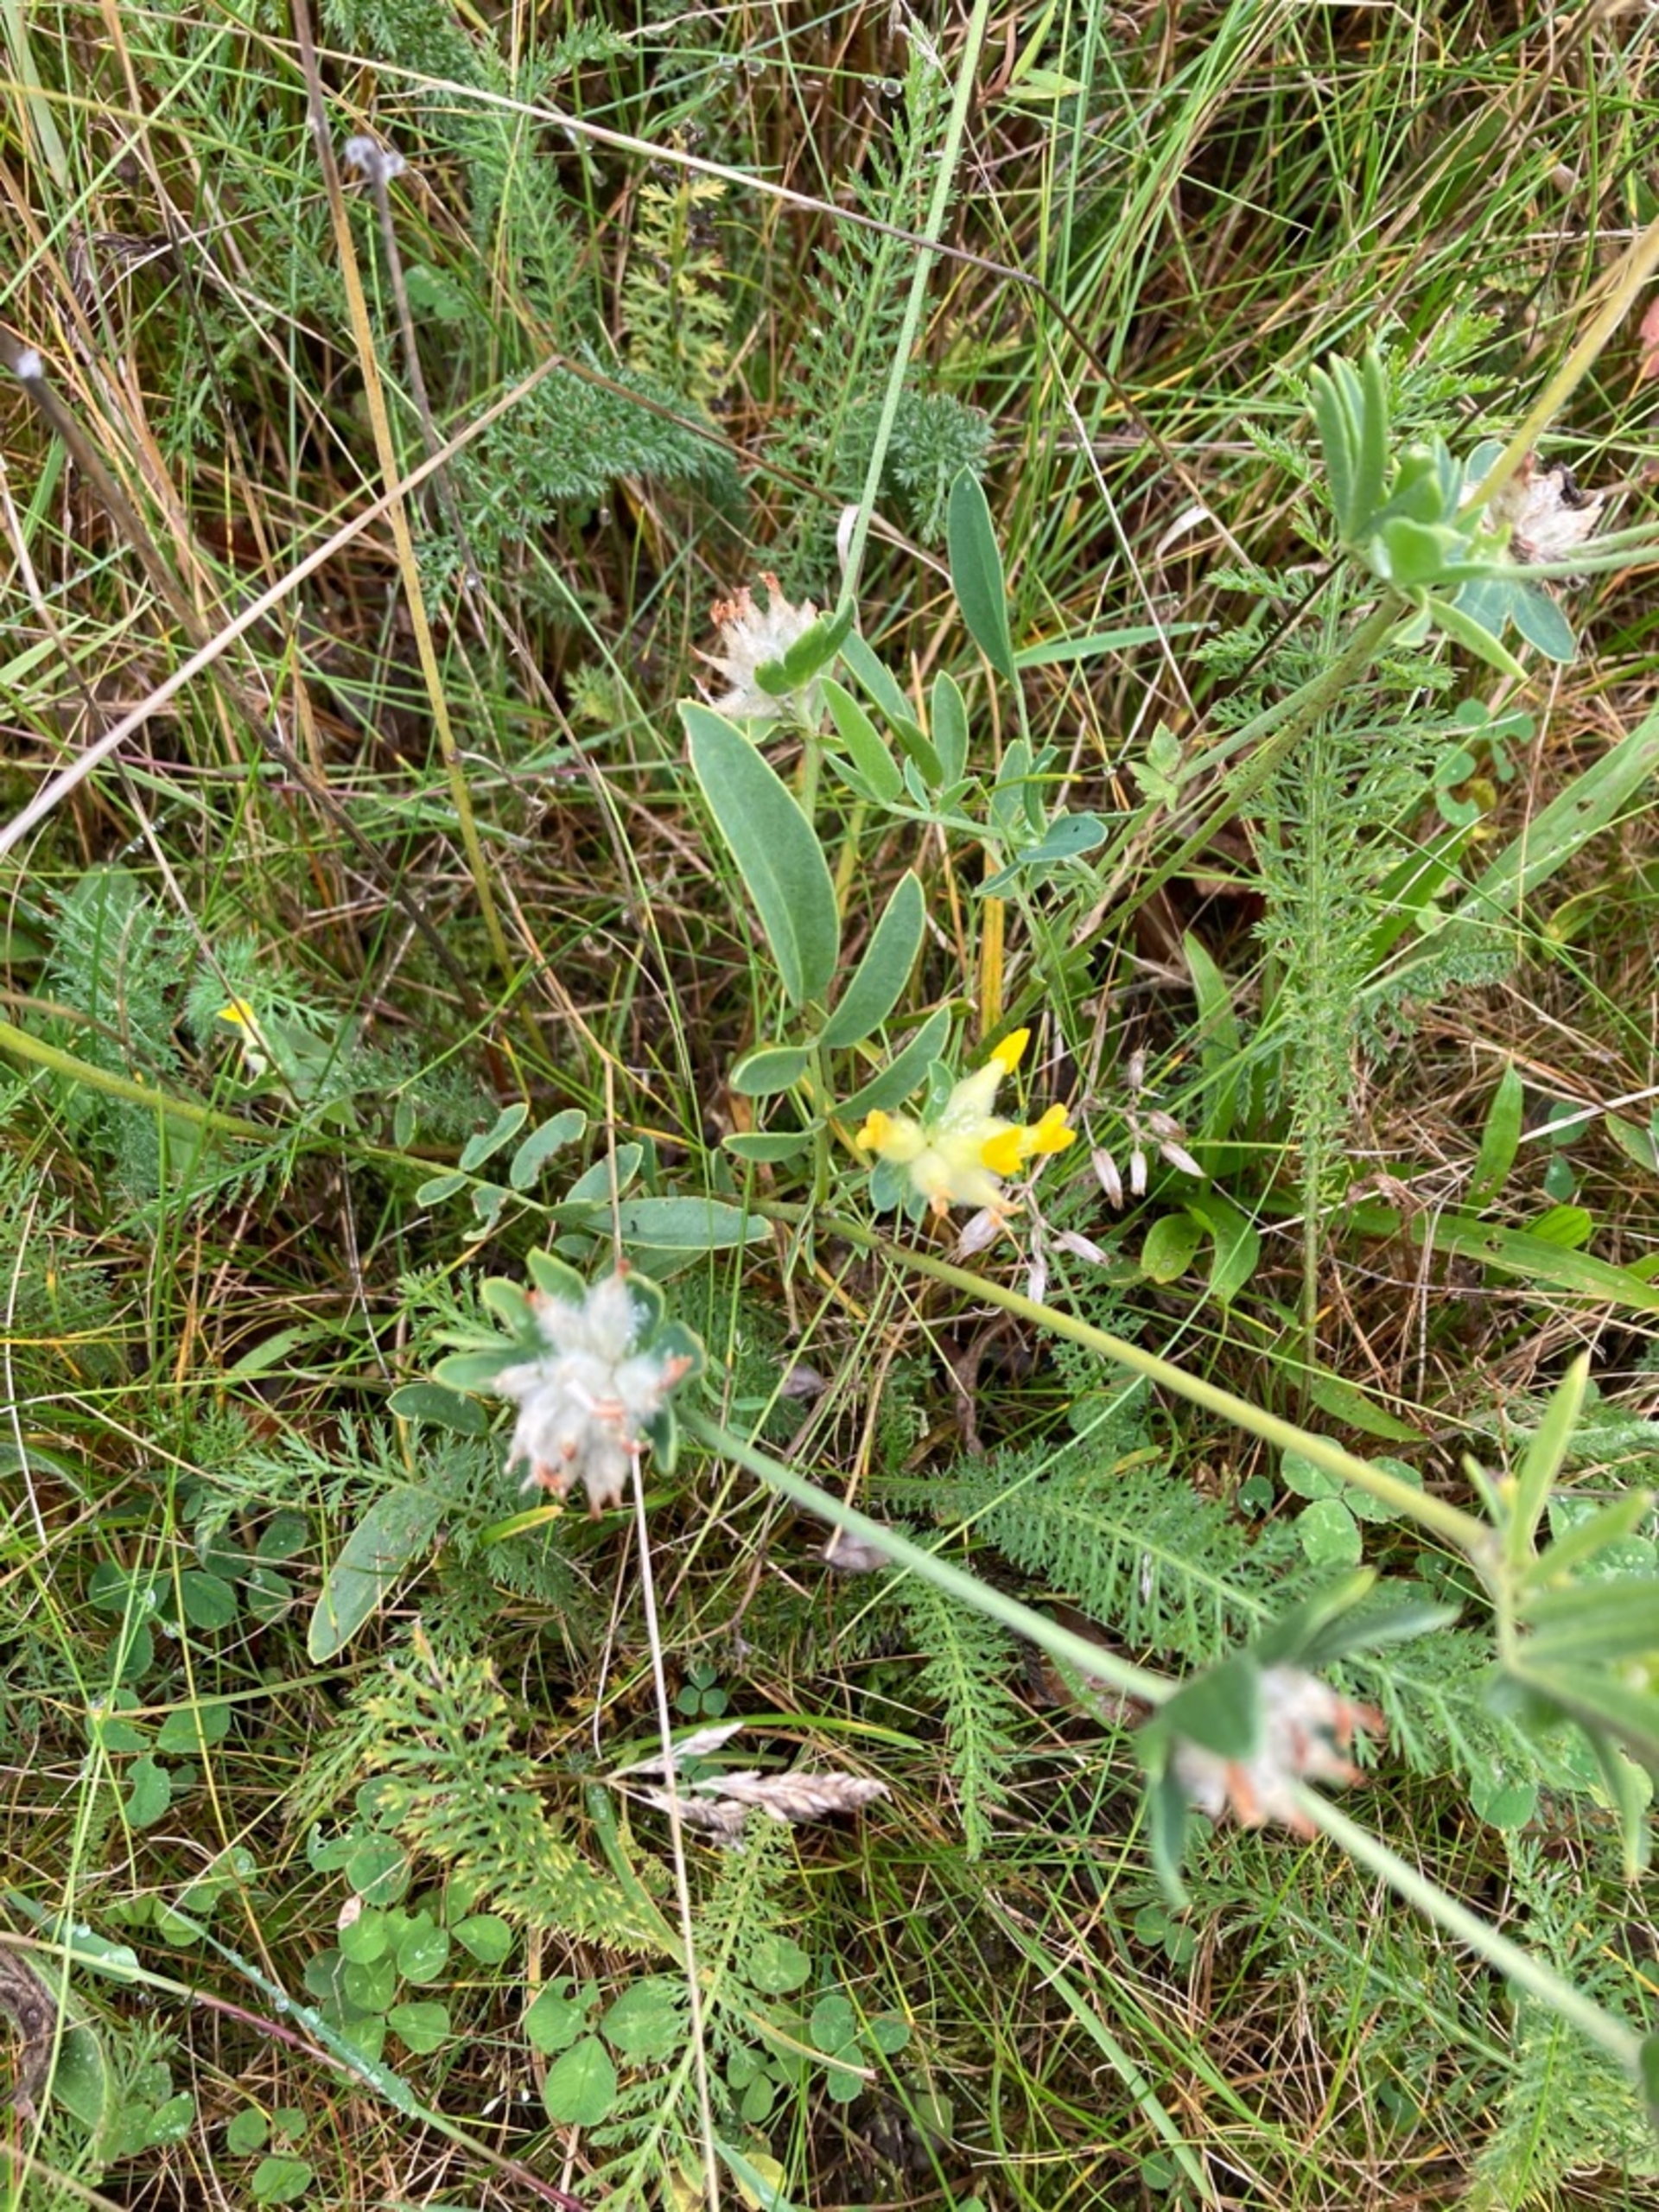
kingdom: Plantae
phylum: Tracheophyta
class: Magnoliopsida
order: Fabales
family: Fabaceae
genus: Anthyllis
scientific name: Anthyllis vulneraria
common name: Rundbælg
